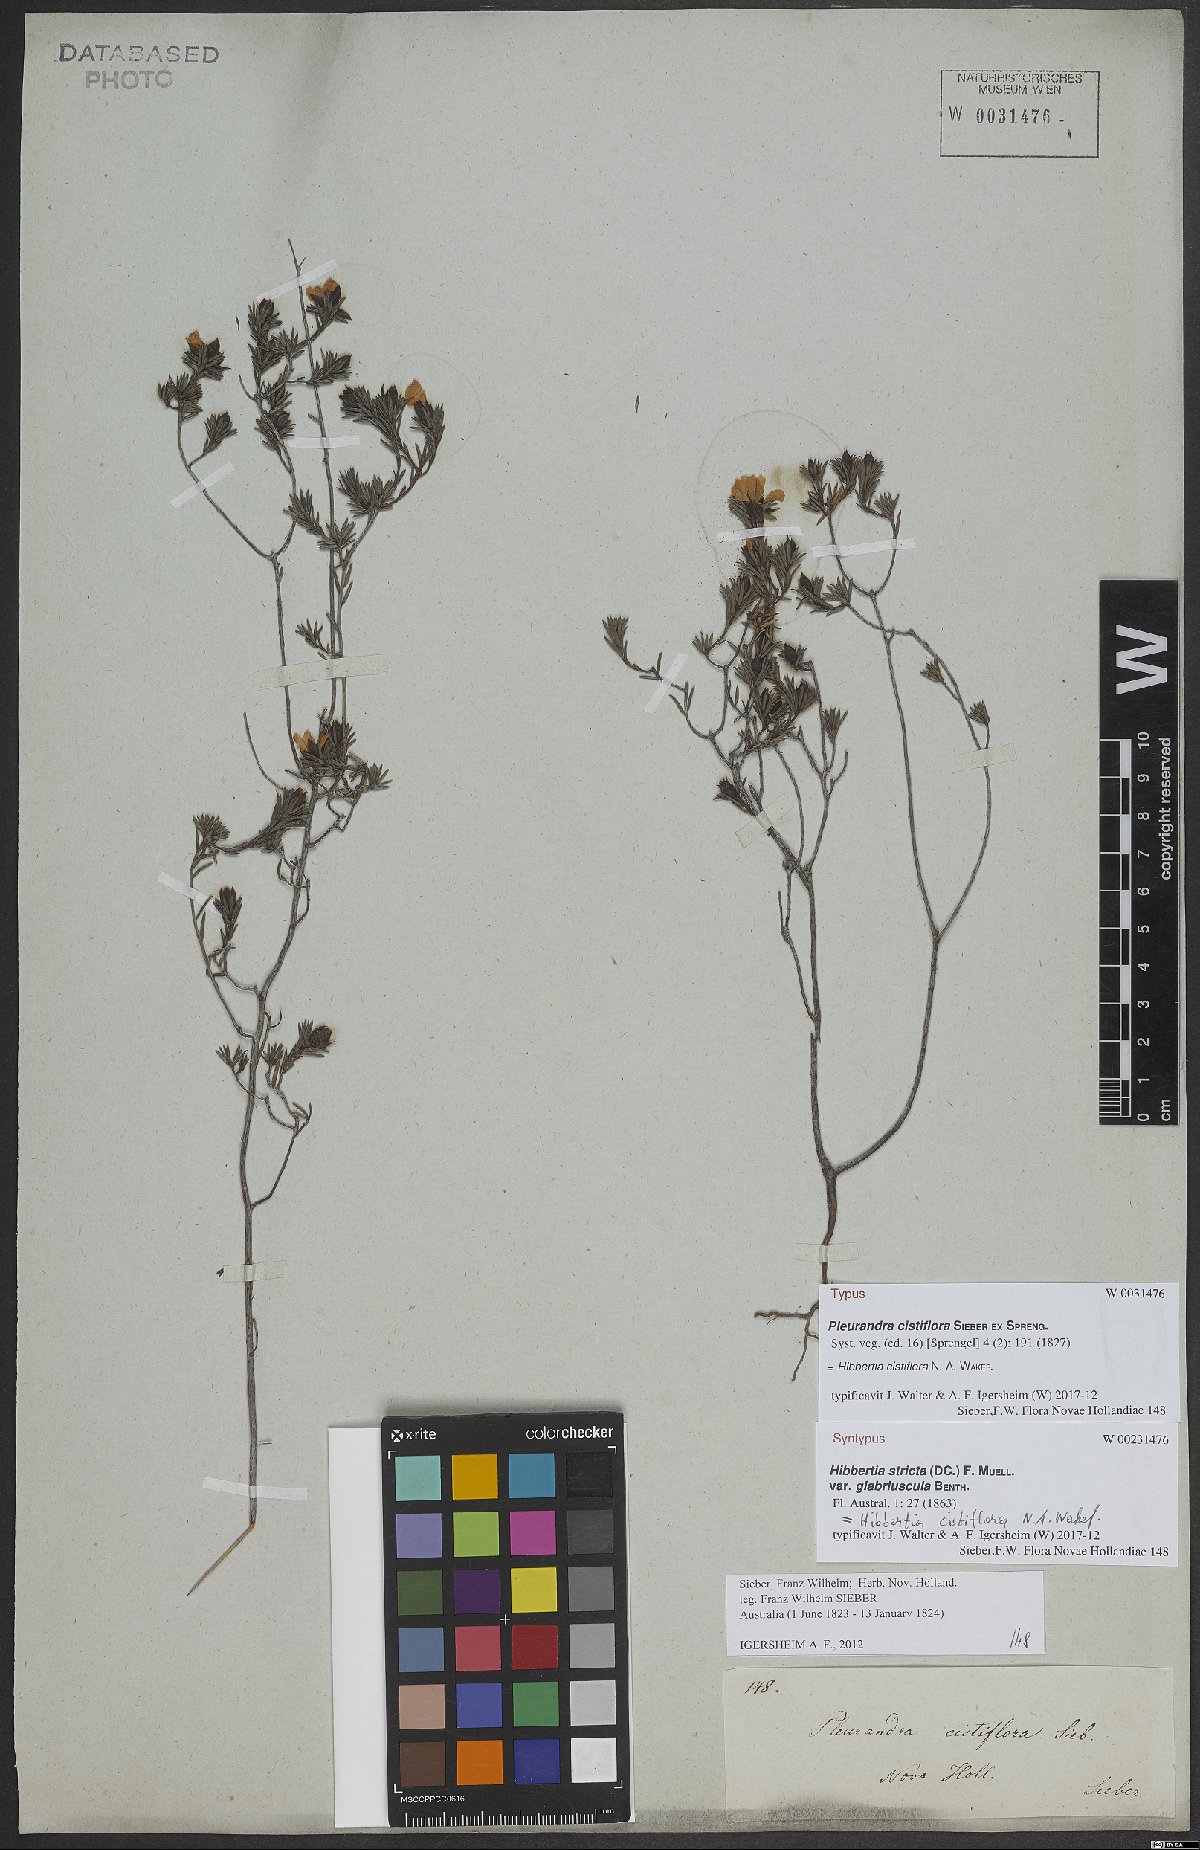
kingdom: Plantae
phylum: Tracheophyta
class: Magnoliopsida
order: Dilleniales
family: Dilleniaceae
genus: Hibbertia
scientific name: Hibbertia cistiflora
